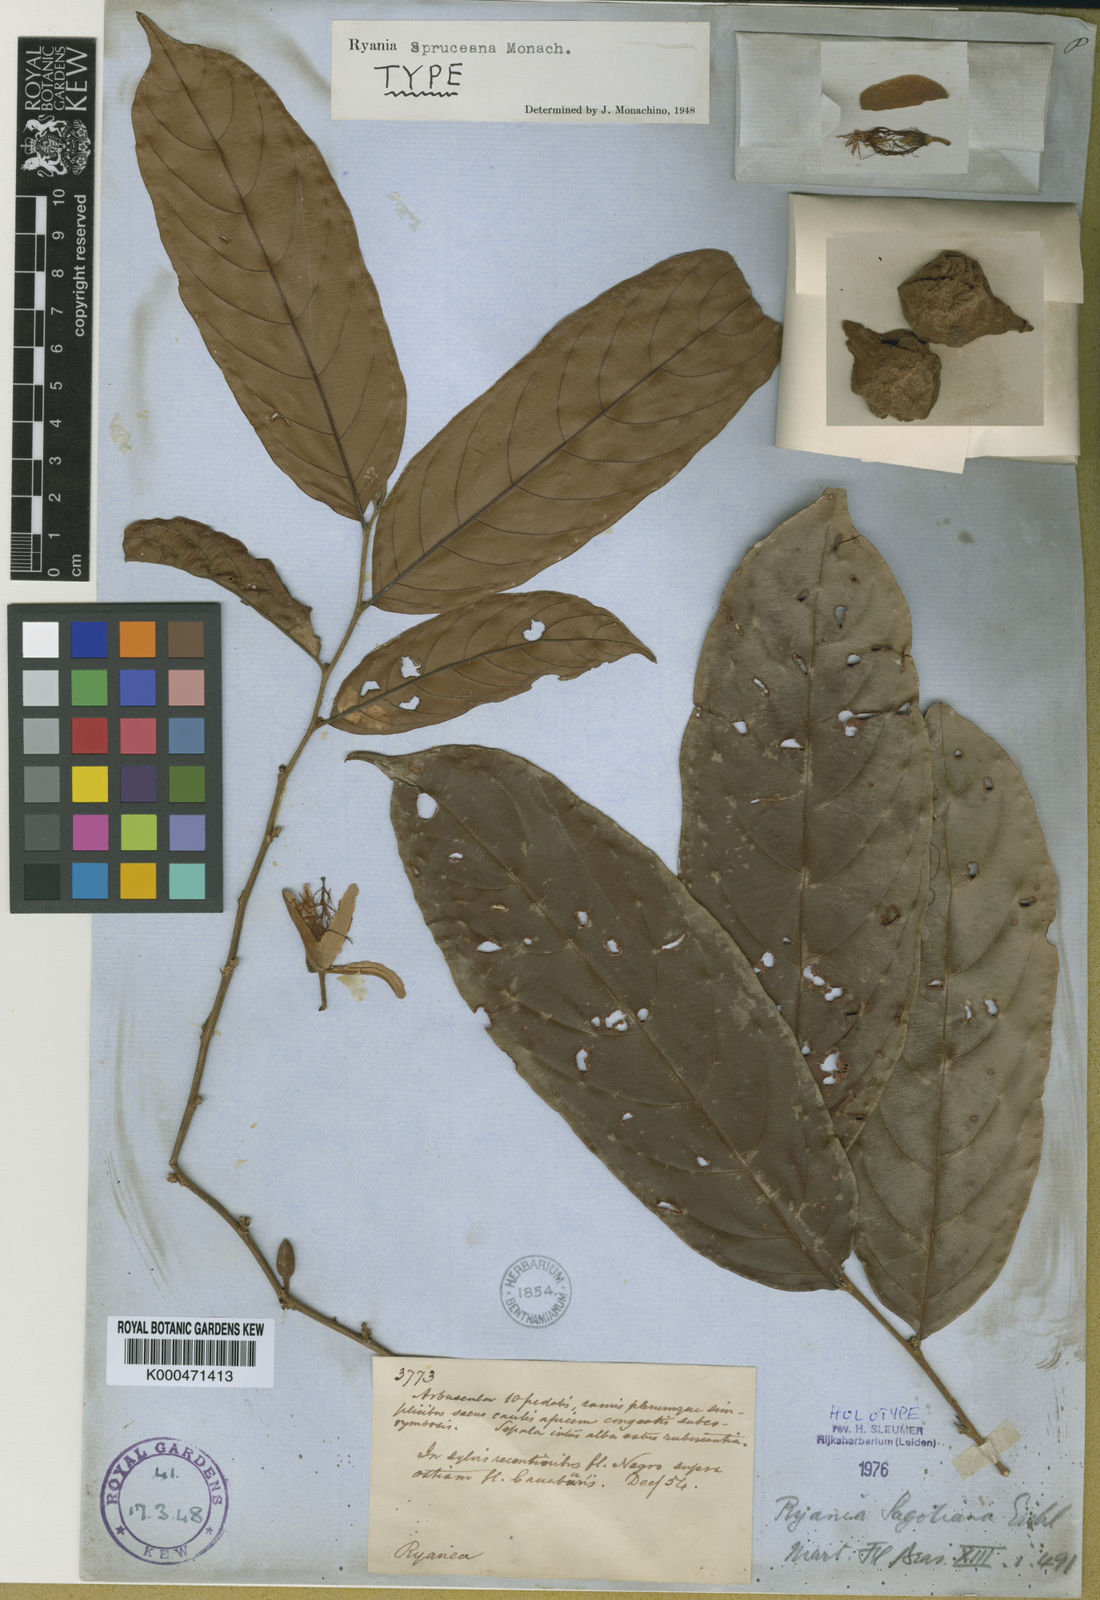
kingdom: Plantae
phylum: Tracheophyta
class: Magnoliopsida
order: Malpighiales
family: Salicaceae
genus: Ryania
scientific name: Ryania spruceana
